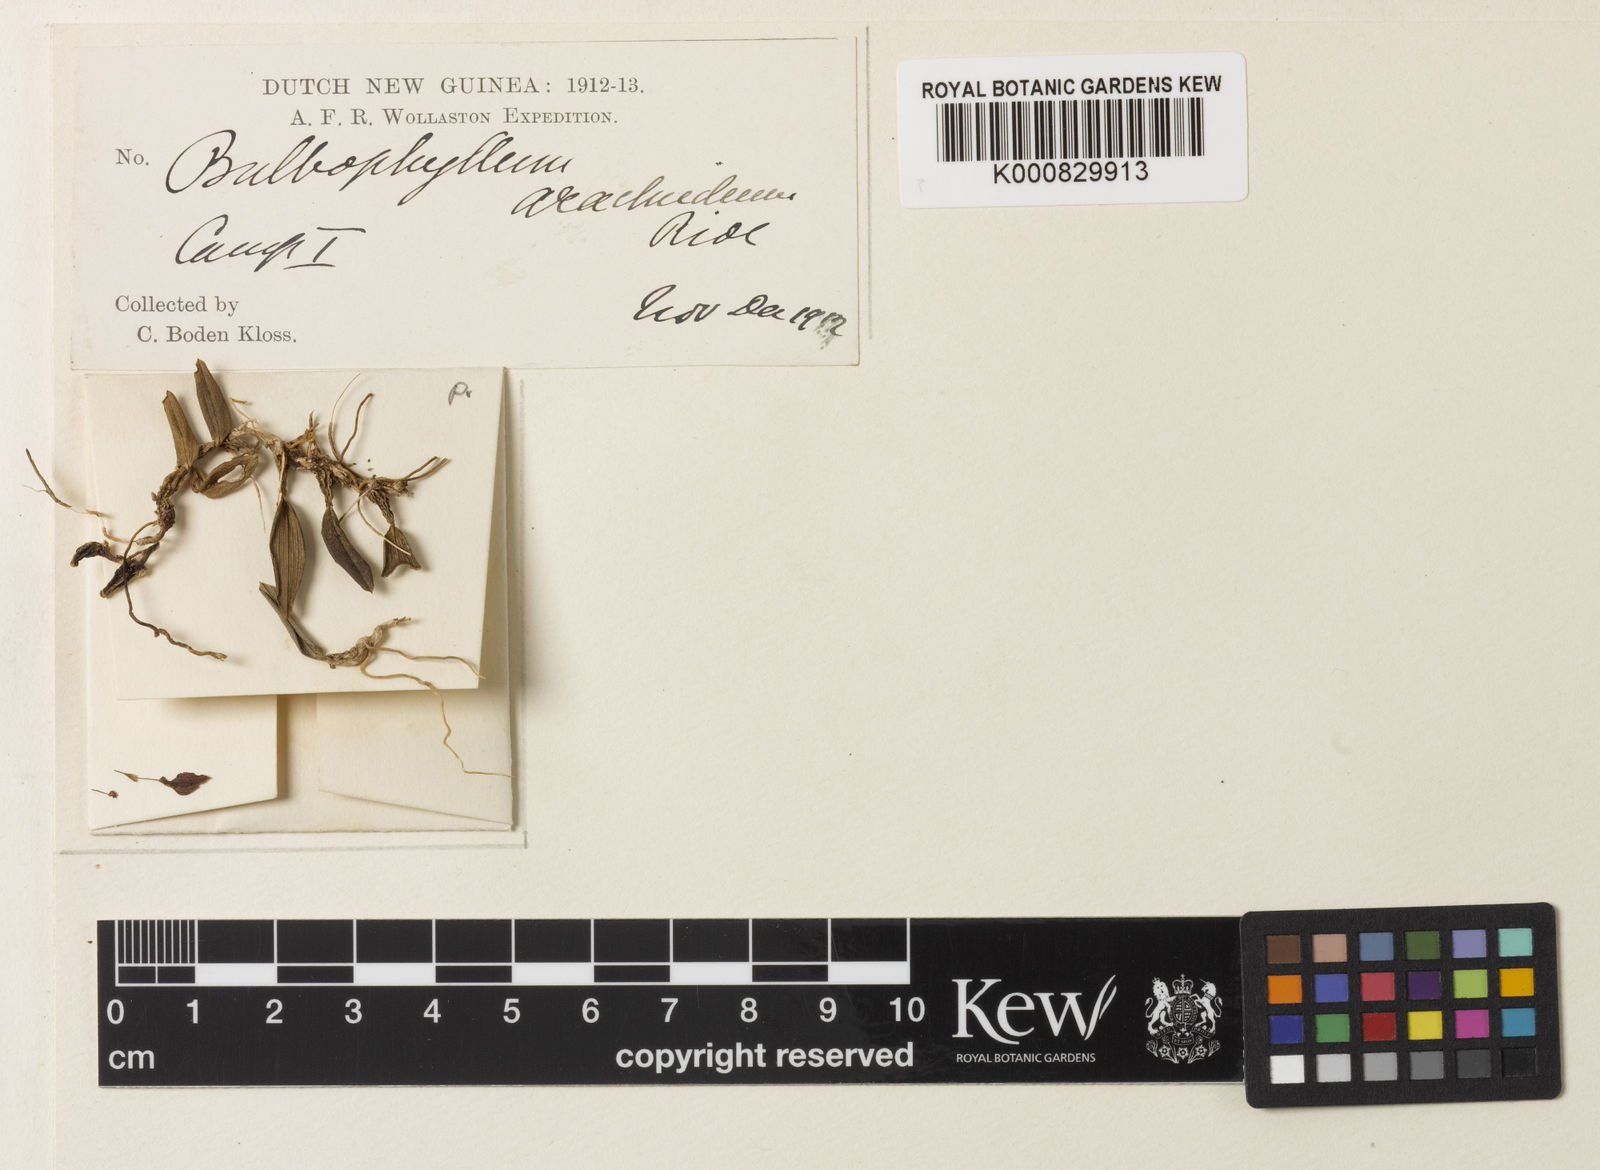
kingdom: Plantae
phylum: Tracheophyta
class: Liliopsida
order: Asparagales
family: Orchidaceae
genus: Bulbophyllum
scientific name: Bulbophyllum longirostre
